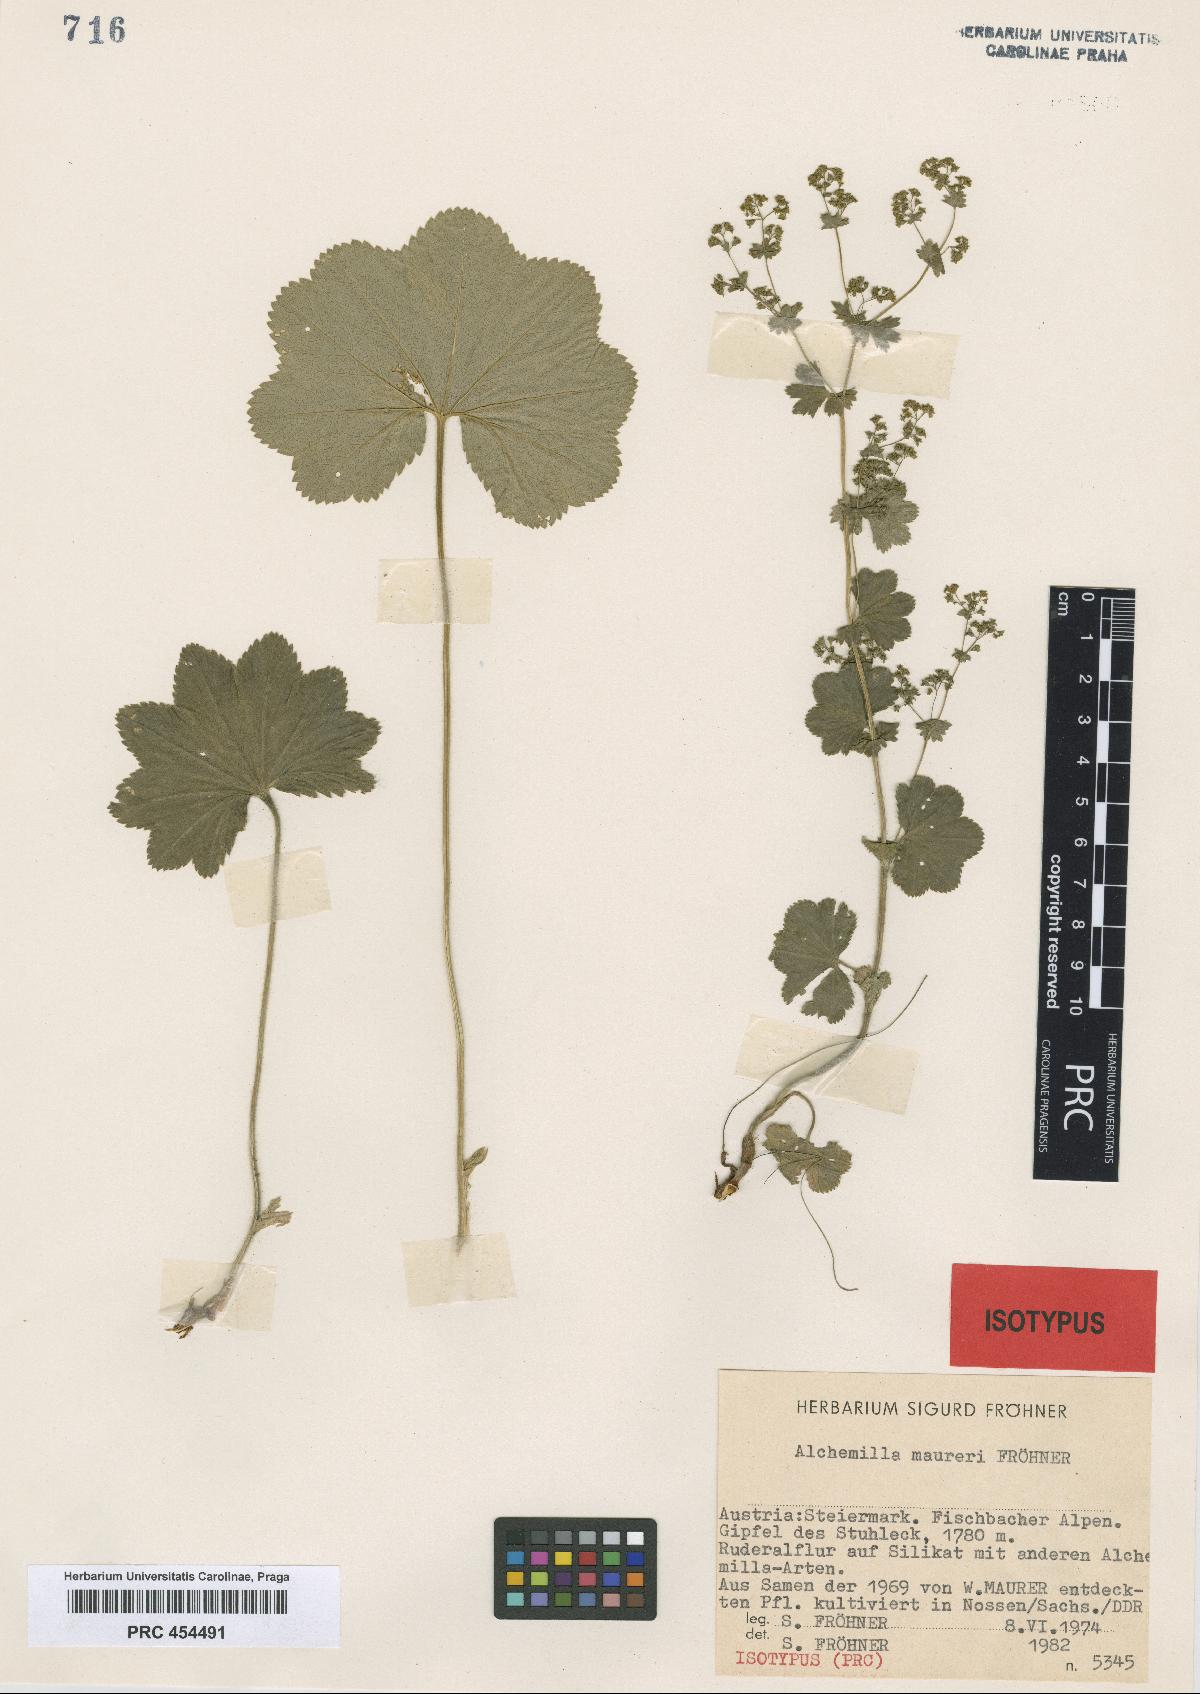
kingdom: Plantae
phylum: Tracheophyta
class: Magnoliopsida
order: Rosales
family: Rosaceae
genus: Alchemilla
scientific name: Alchemilla maureri
